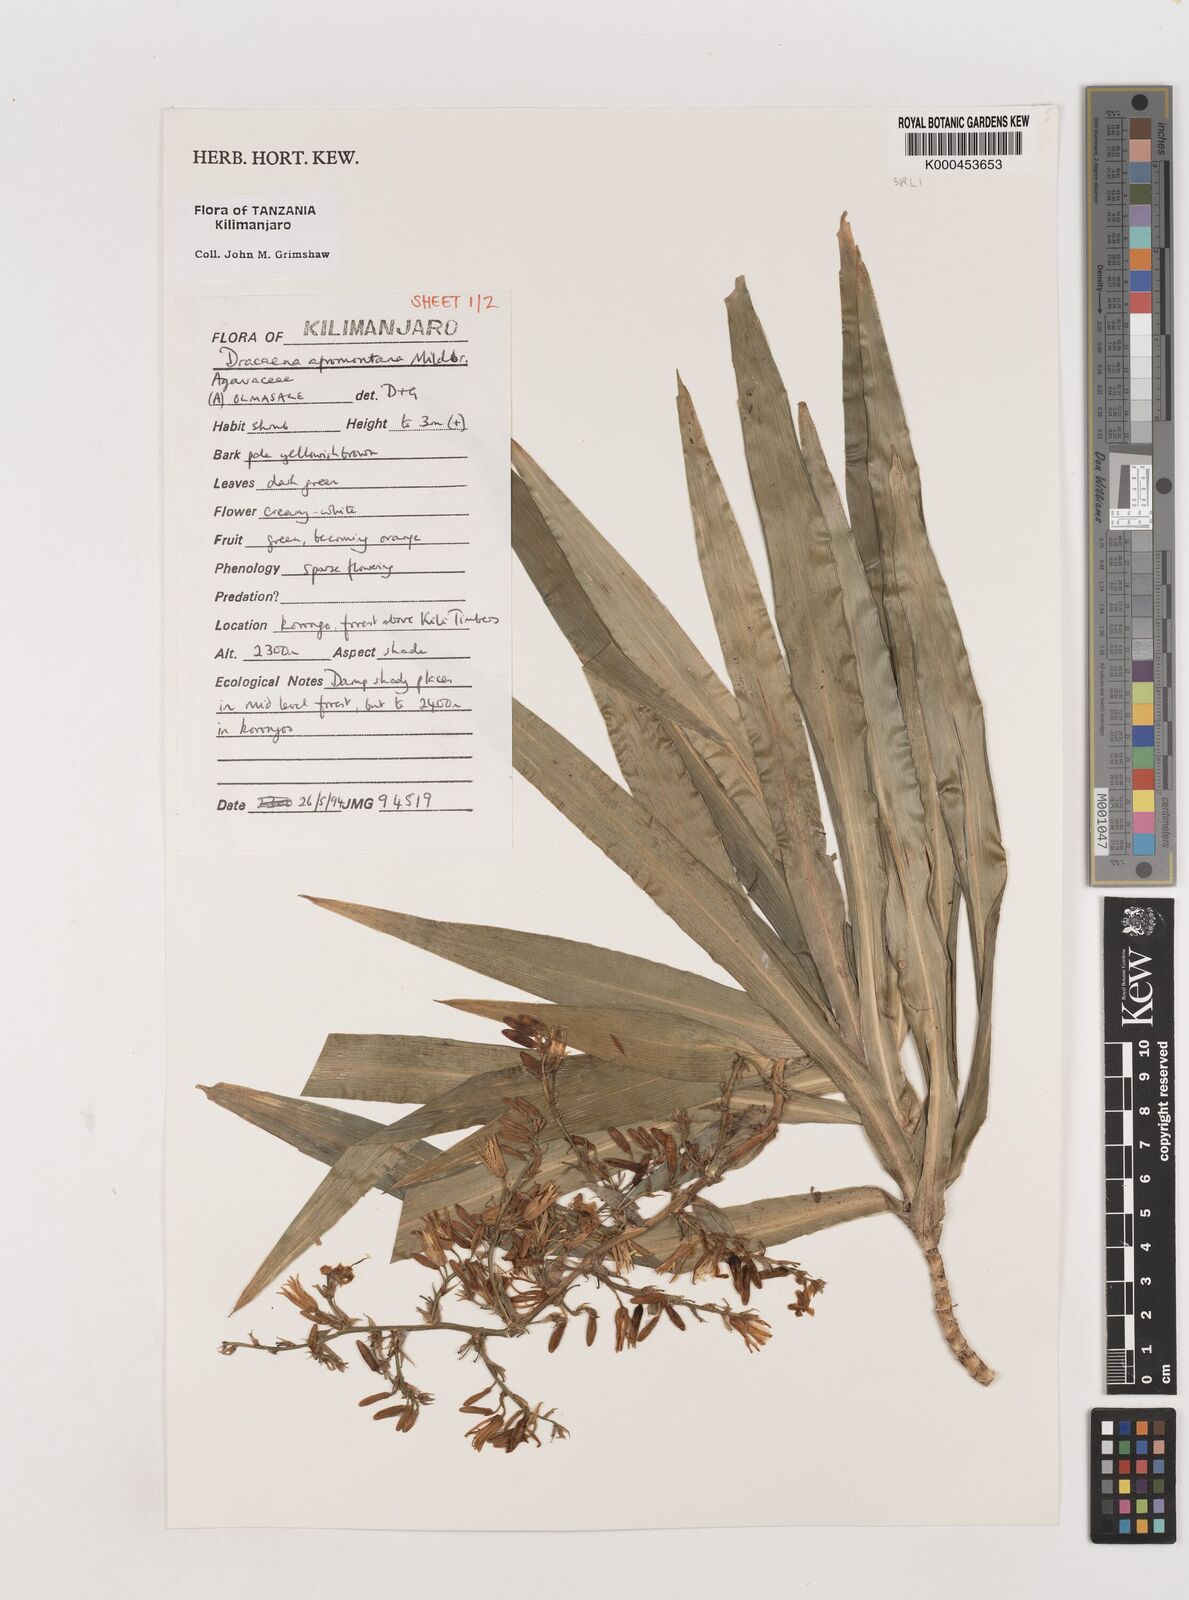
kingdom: Plantae
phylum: Tracheophyta
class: Liliopsida
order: Asparagales
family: Asparagaceae
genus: Dracaena
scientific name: Dracaena afromontana
